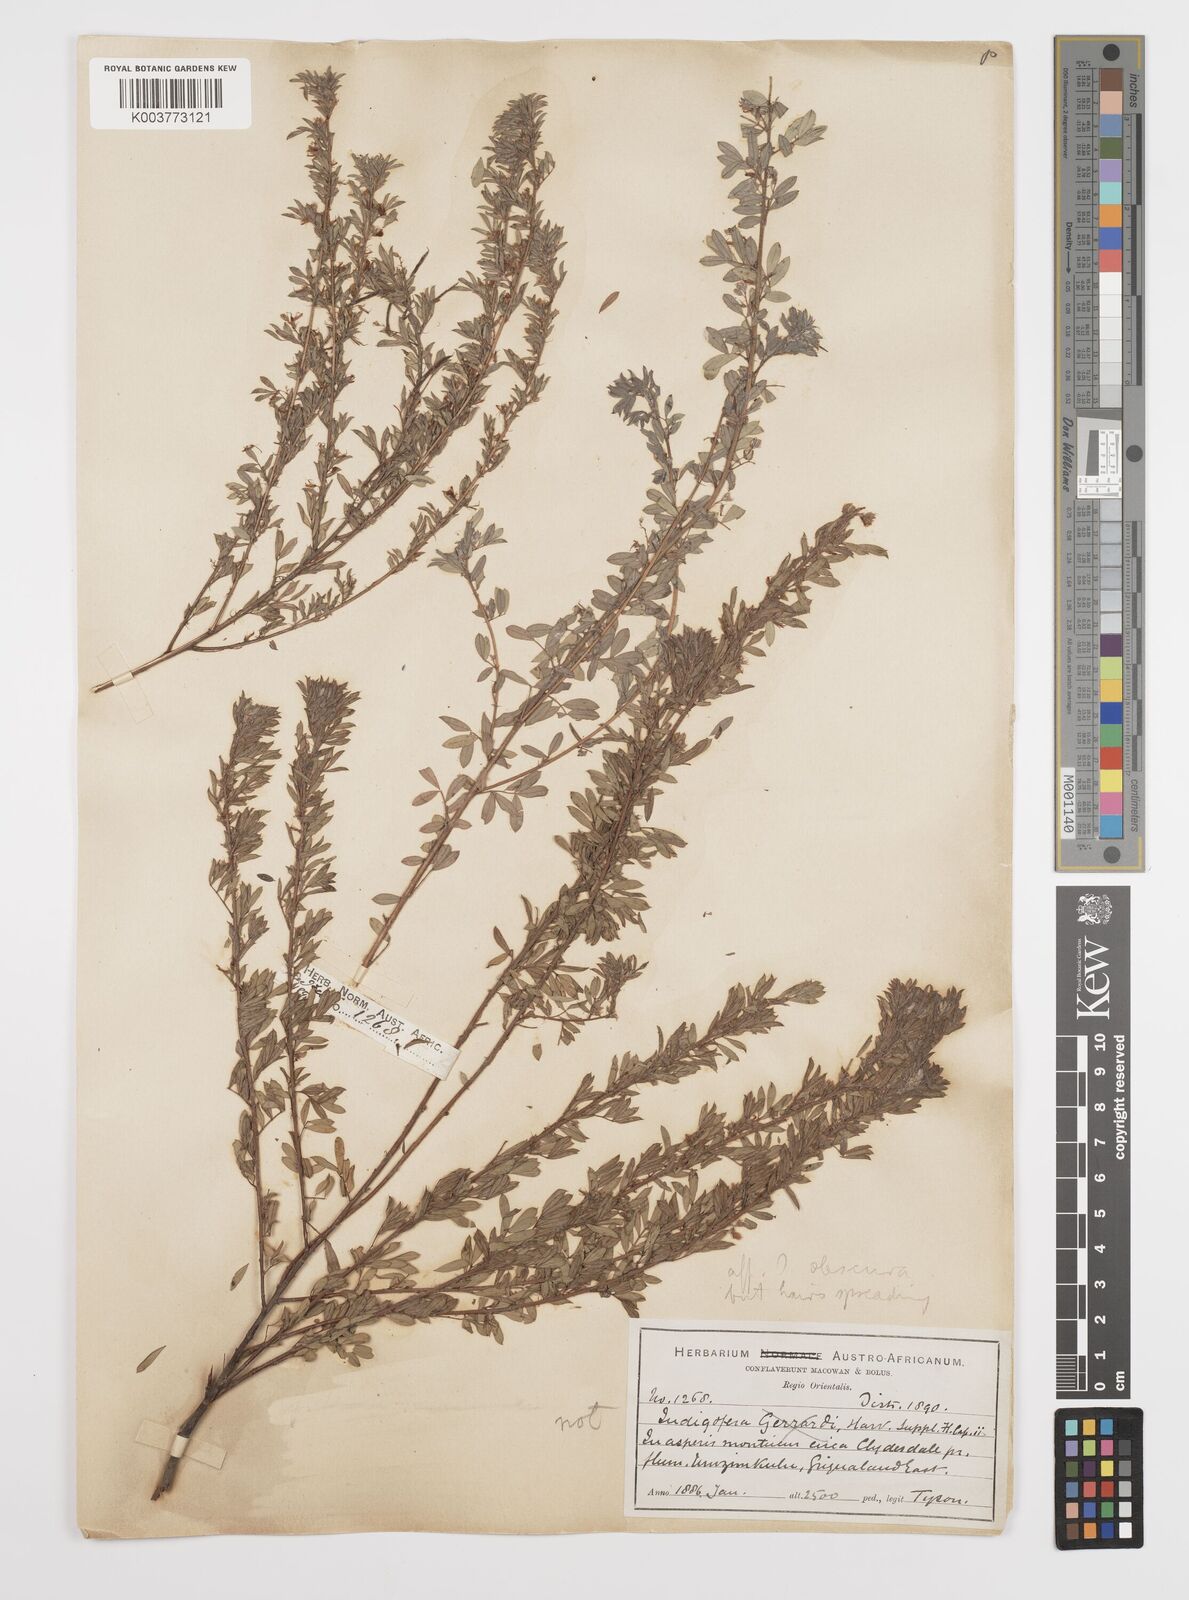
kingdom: Plantae
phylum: Tracheophyta
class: Magnoliopsida
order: Fabales
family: Fabaceae
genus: Indigofera
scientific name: Indigofera
